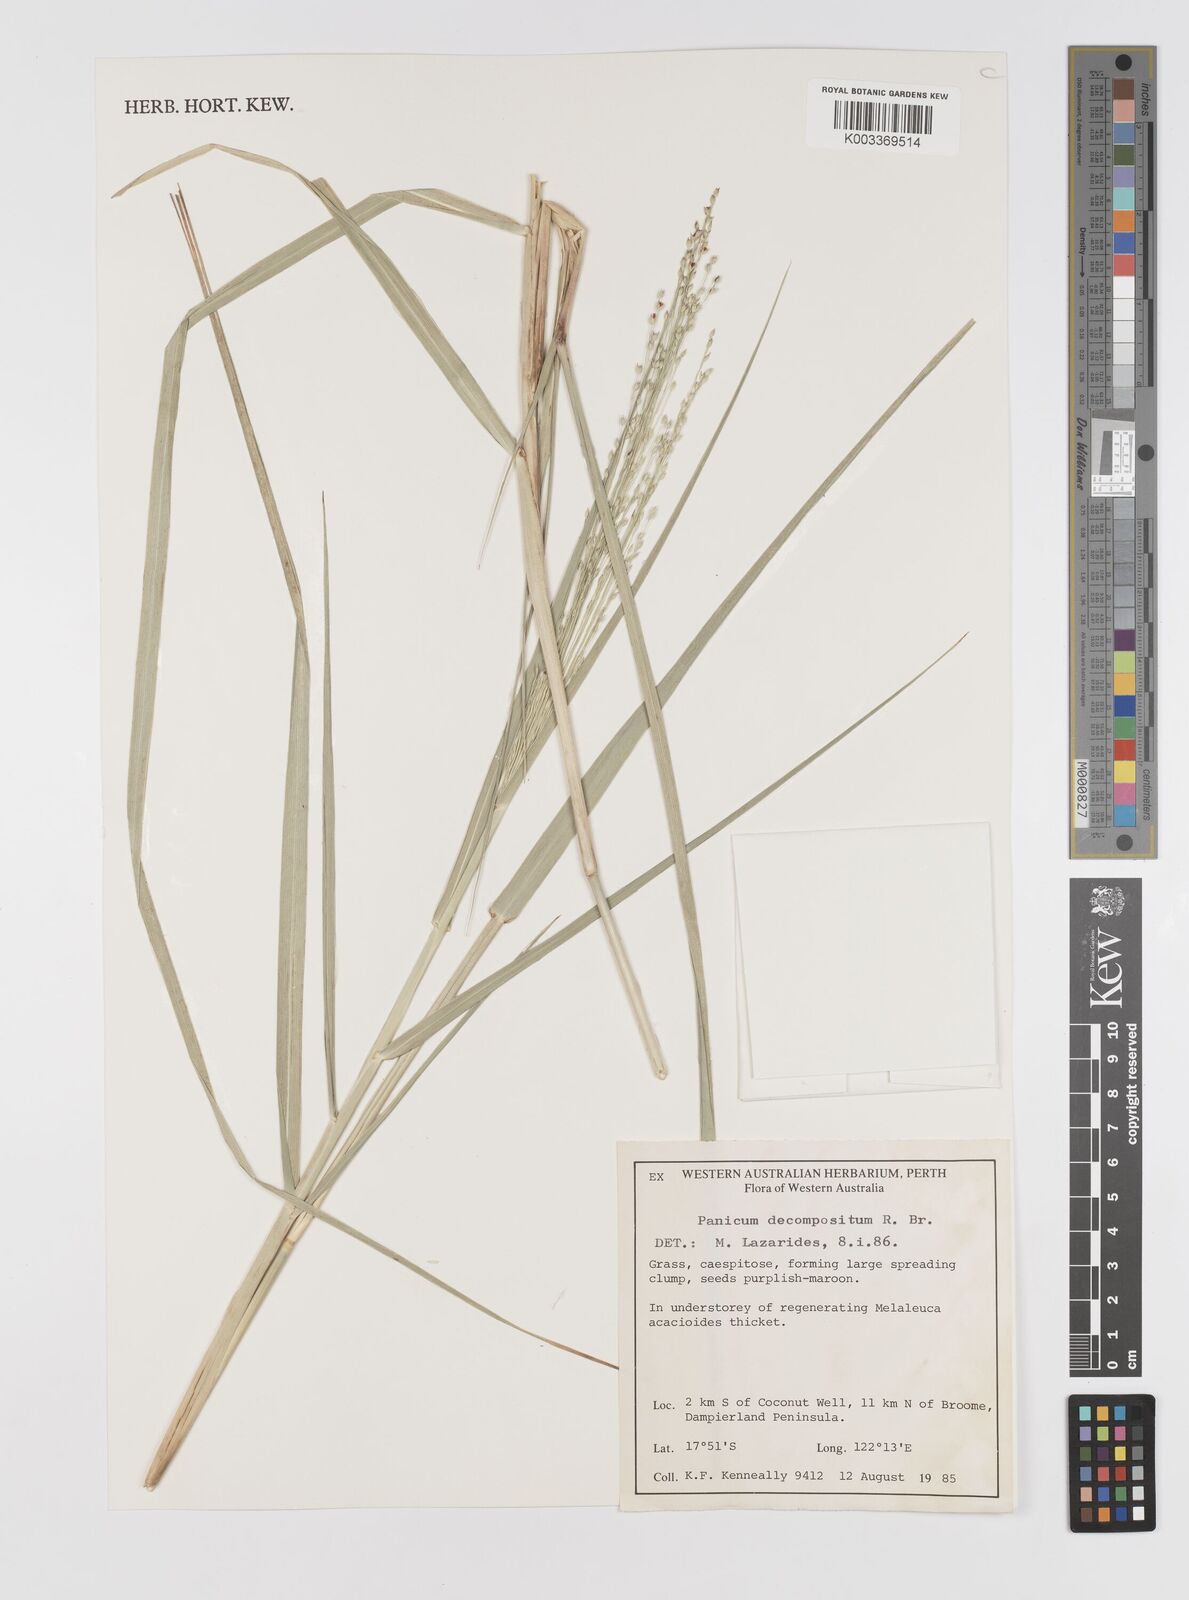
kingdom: Plantae
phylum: Tracheophyta
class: Liliopsida
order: Poales
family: Poaceae
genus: Panicum
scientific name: Panicum decompositum
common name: Australian millet
